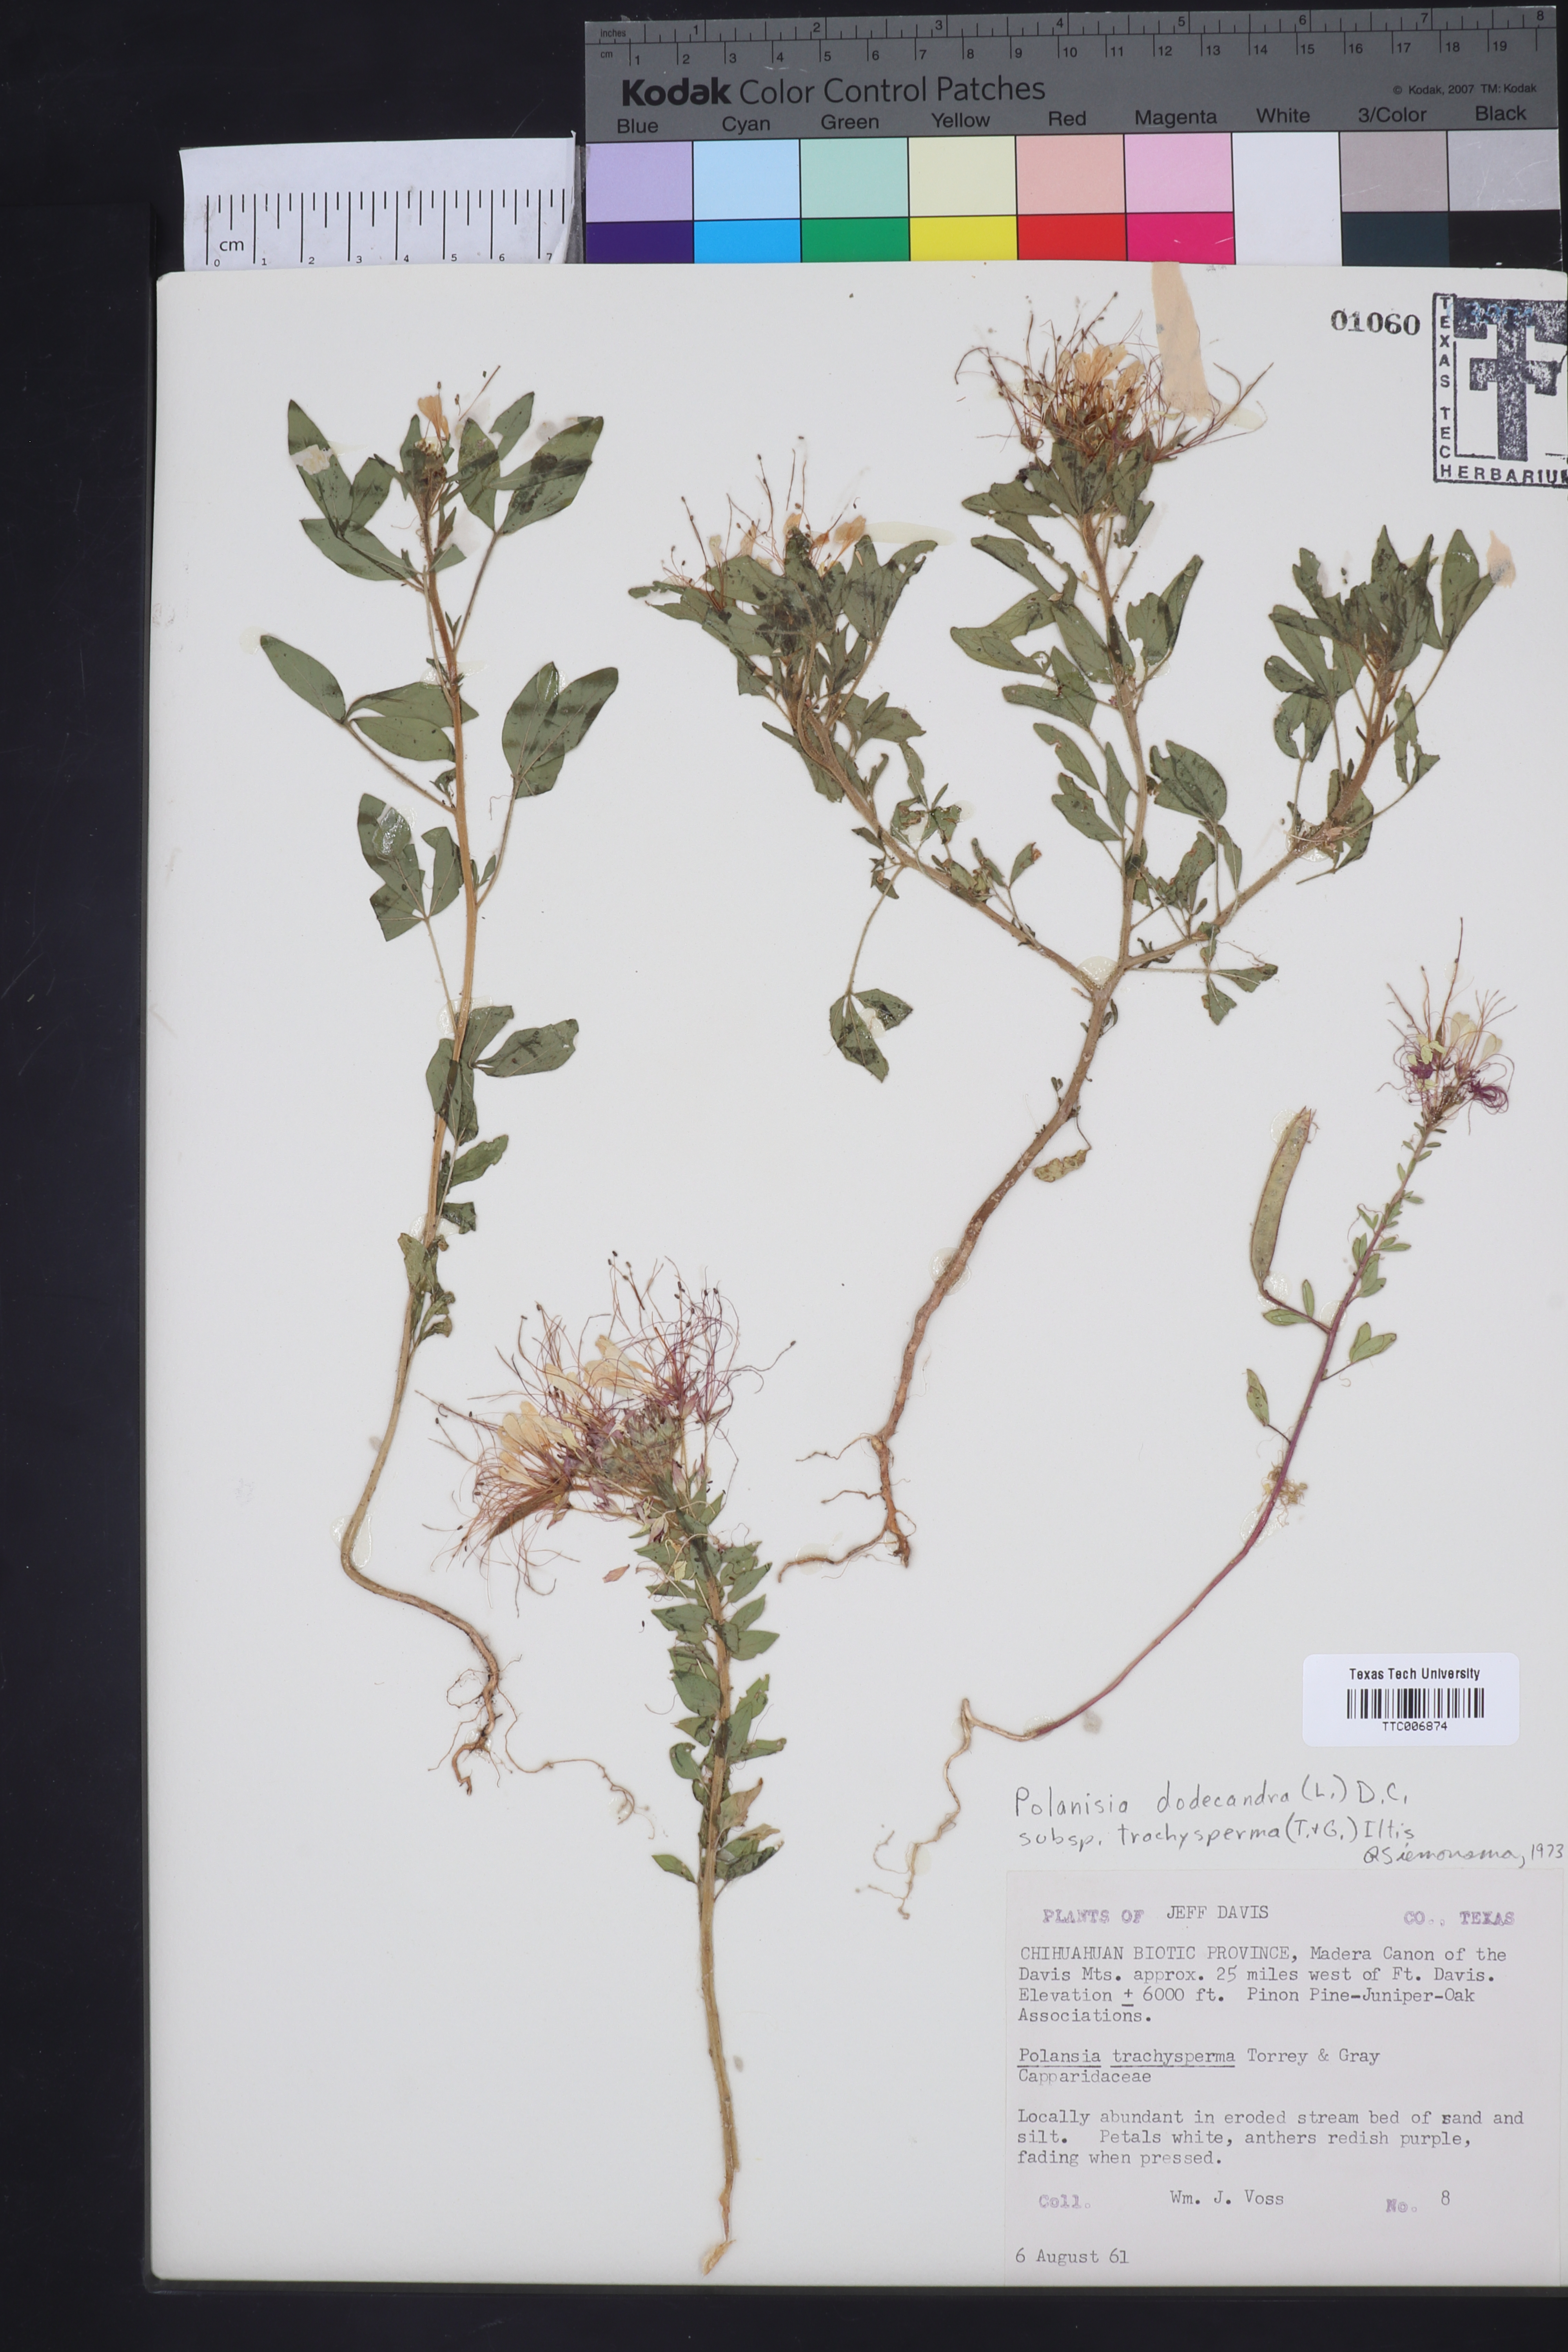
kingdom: Plantae
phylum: Tracheophyta
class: Magnoliopsida
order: Brassicales
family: Cleomaceae
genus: Polanisia
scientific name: Polanisia trachysperma
